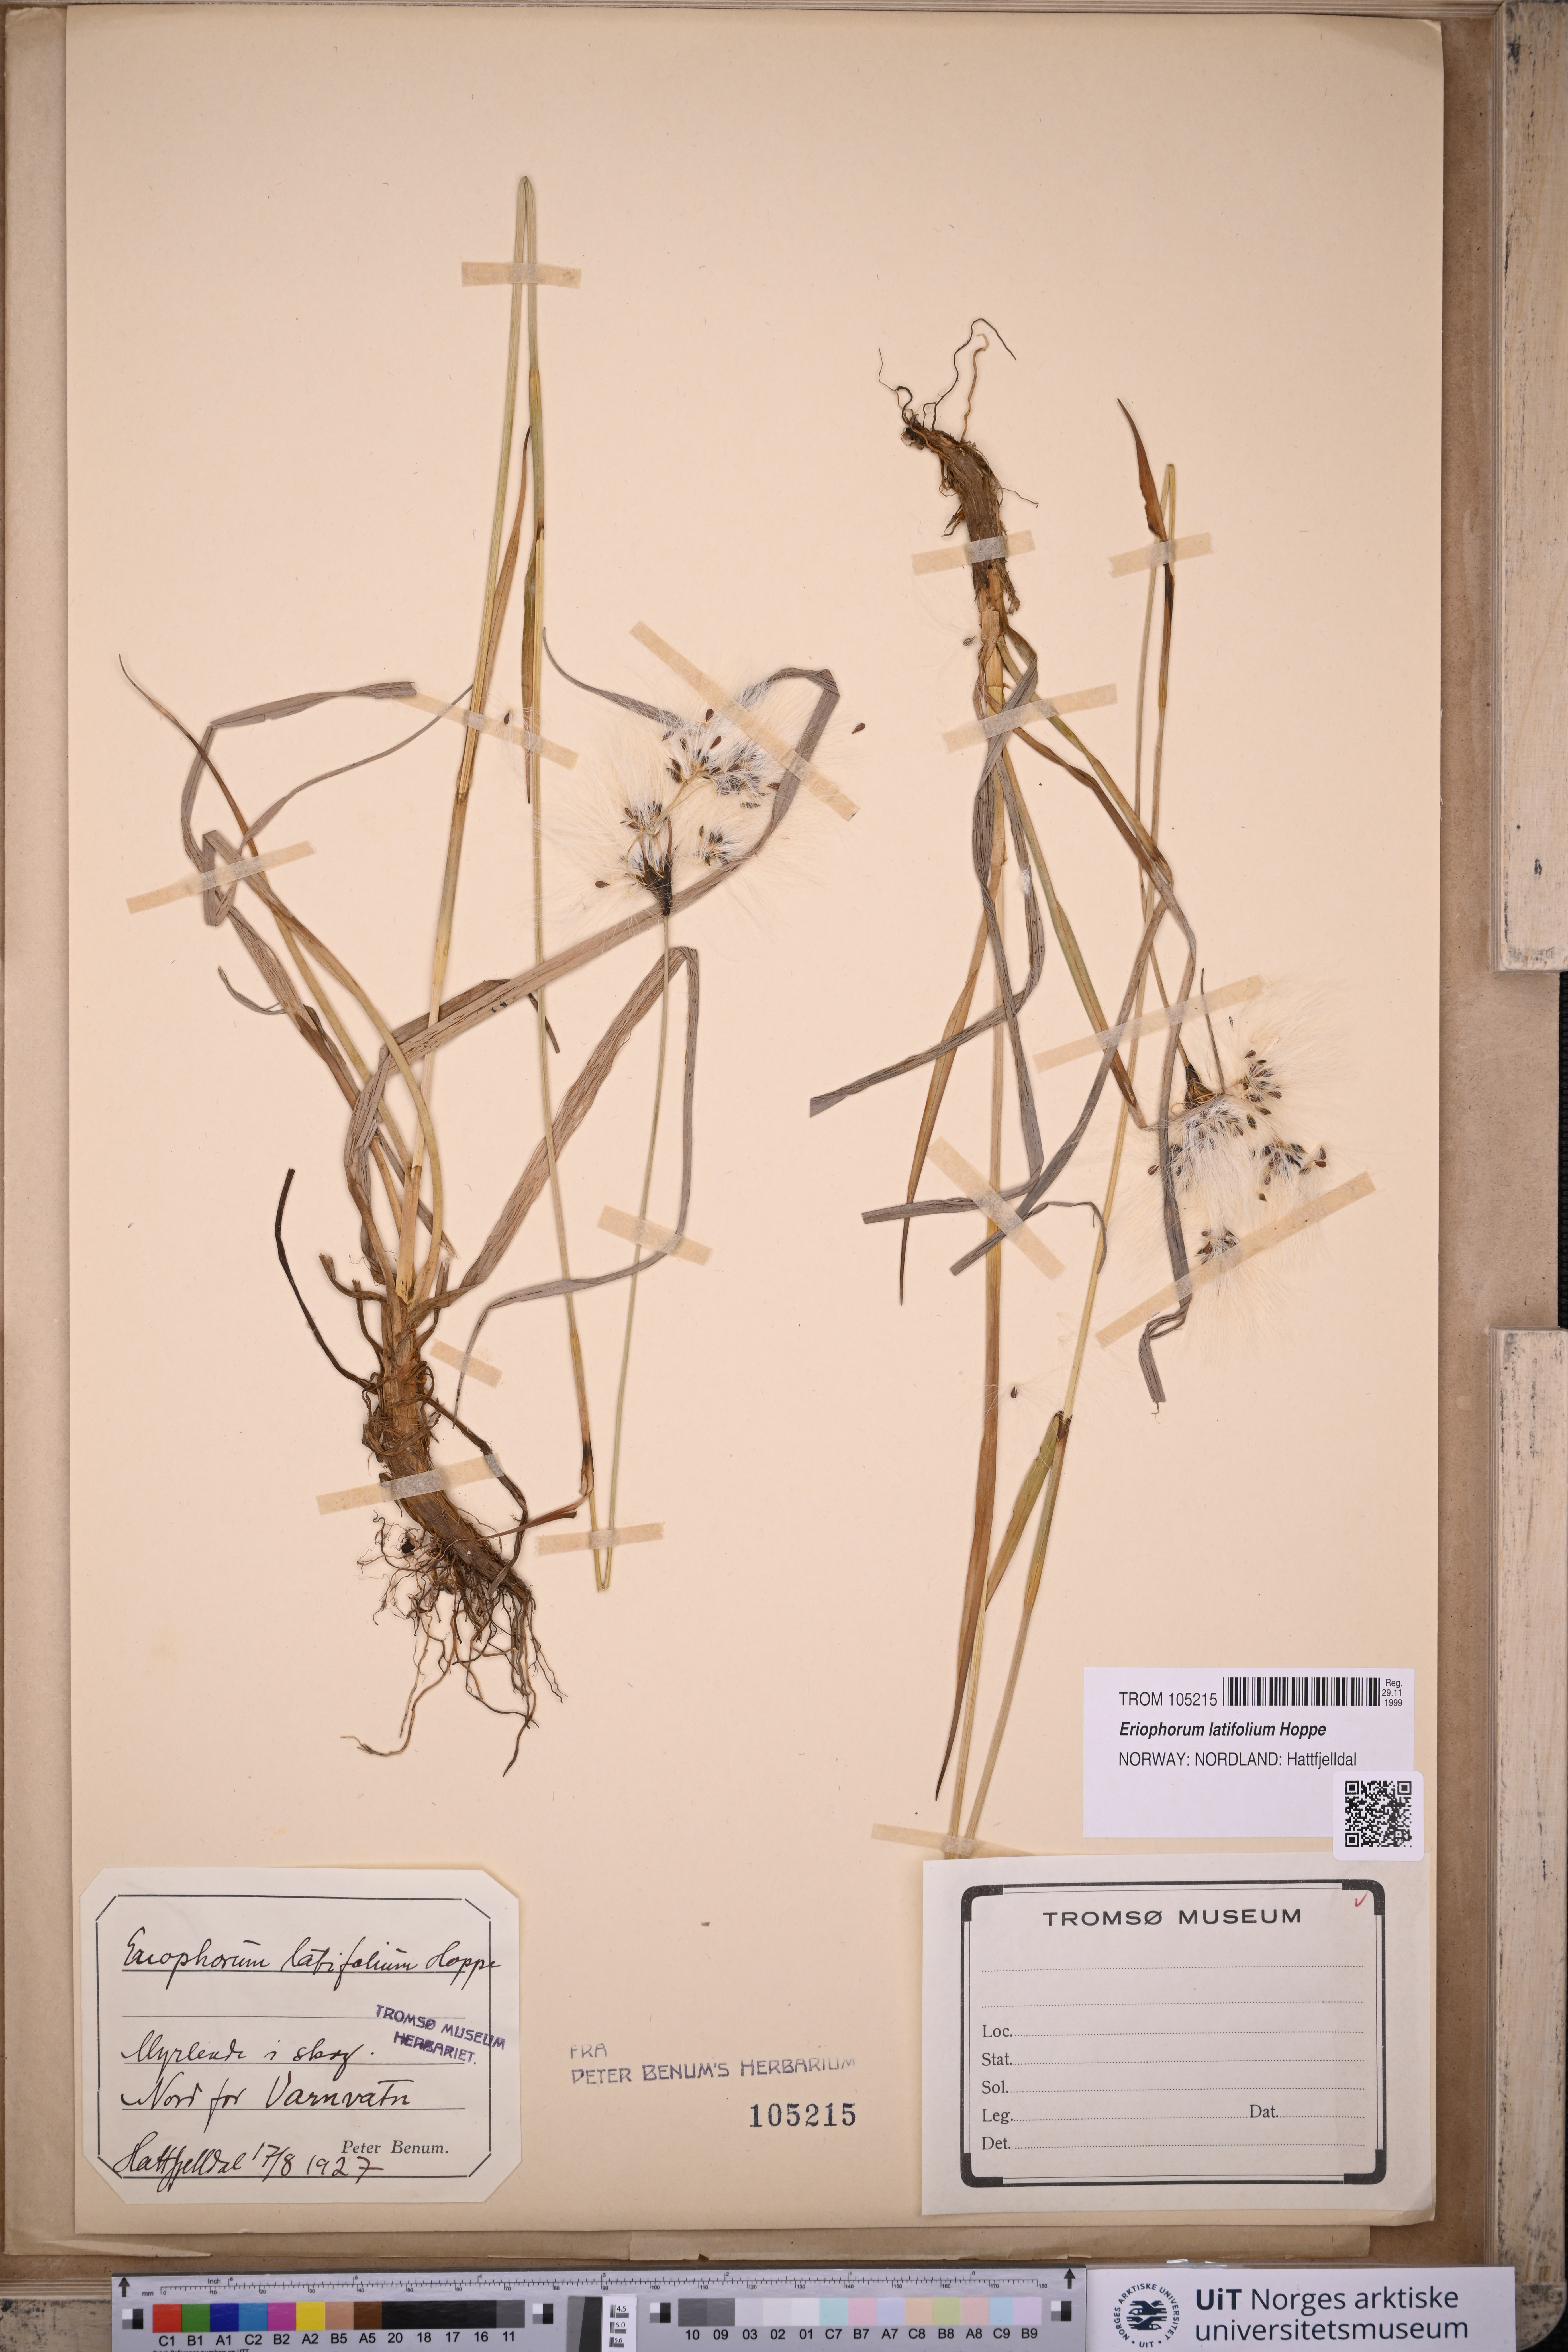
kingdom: Plantae
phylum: Tracheophyta
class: Liliopsida
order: Poales
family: Cyperaceae
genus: Eriophorum
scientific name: Eriophorum latifolium
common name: Broad-leaved cottongrass
